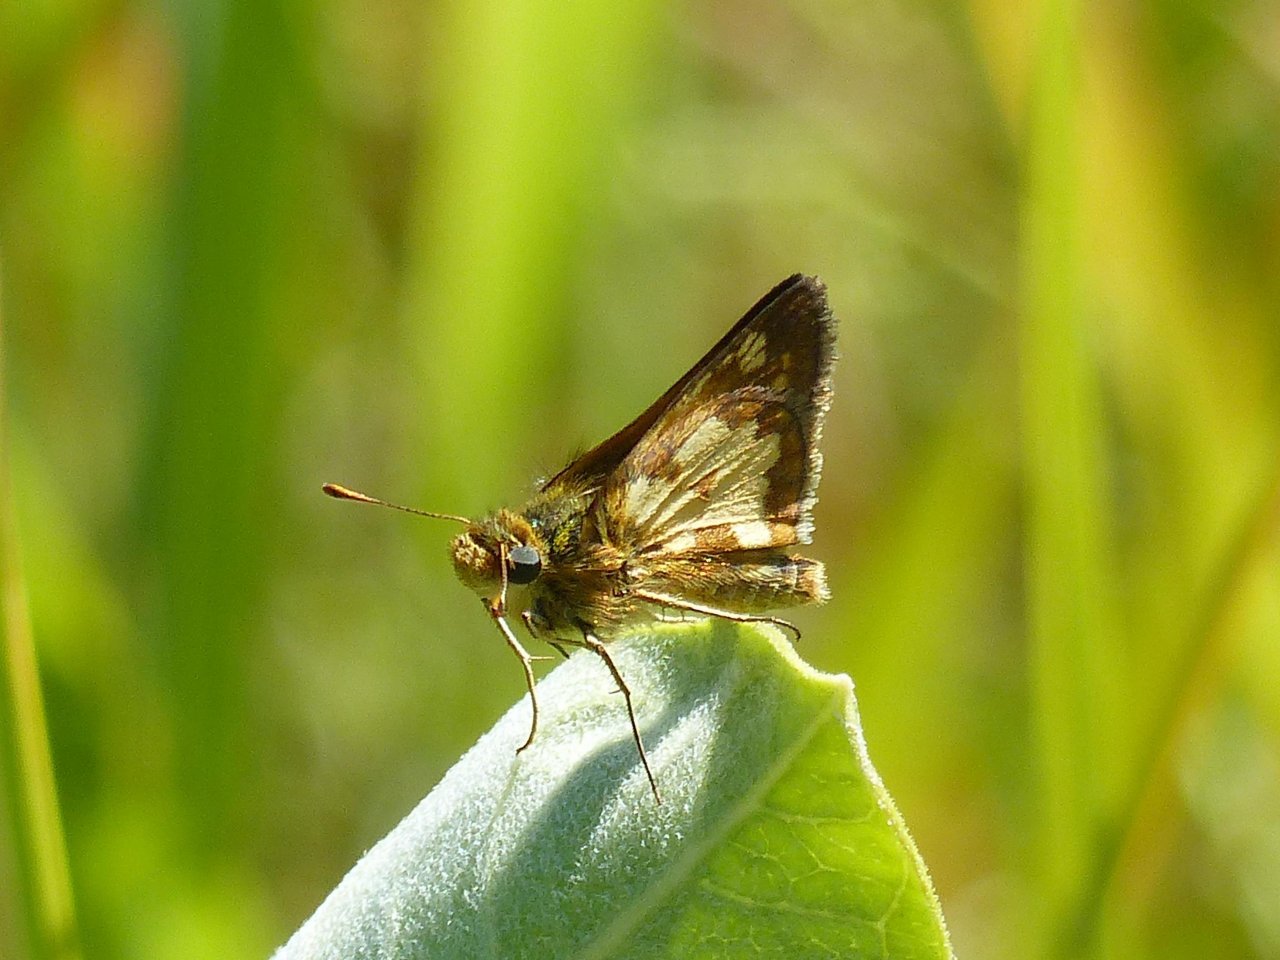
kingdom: Animalia
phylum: Arthropoda
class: Insecta
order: Lepidoptera
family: Hesperiidae
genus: Polites
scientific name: Polites coras
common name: Peck's Skipper
